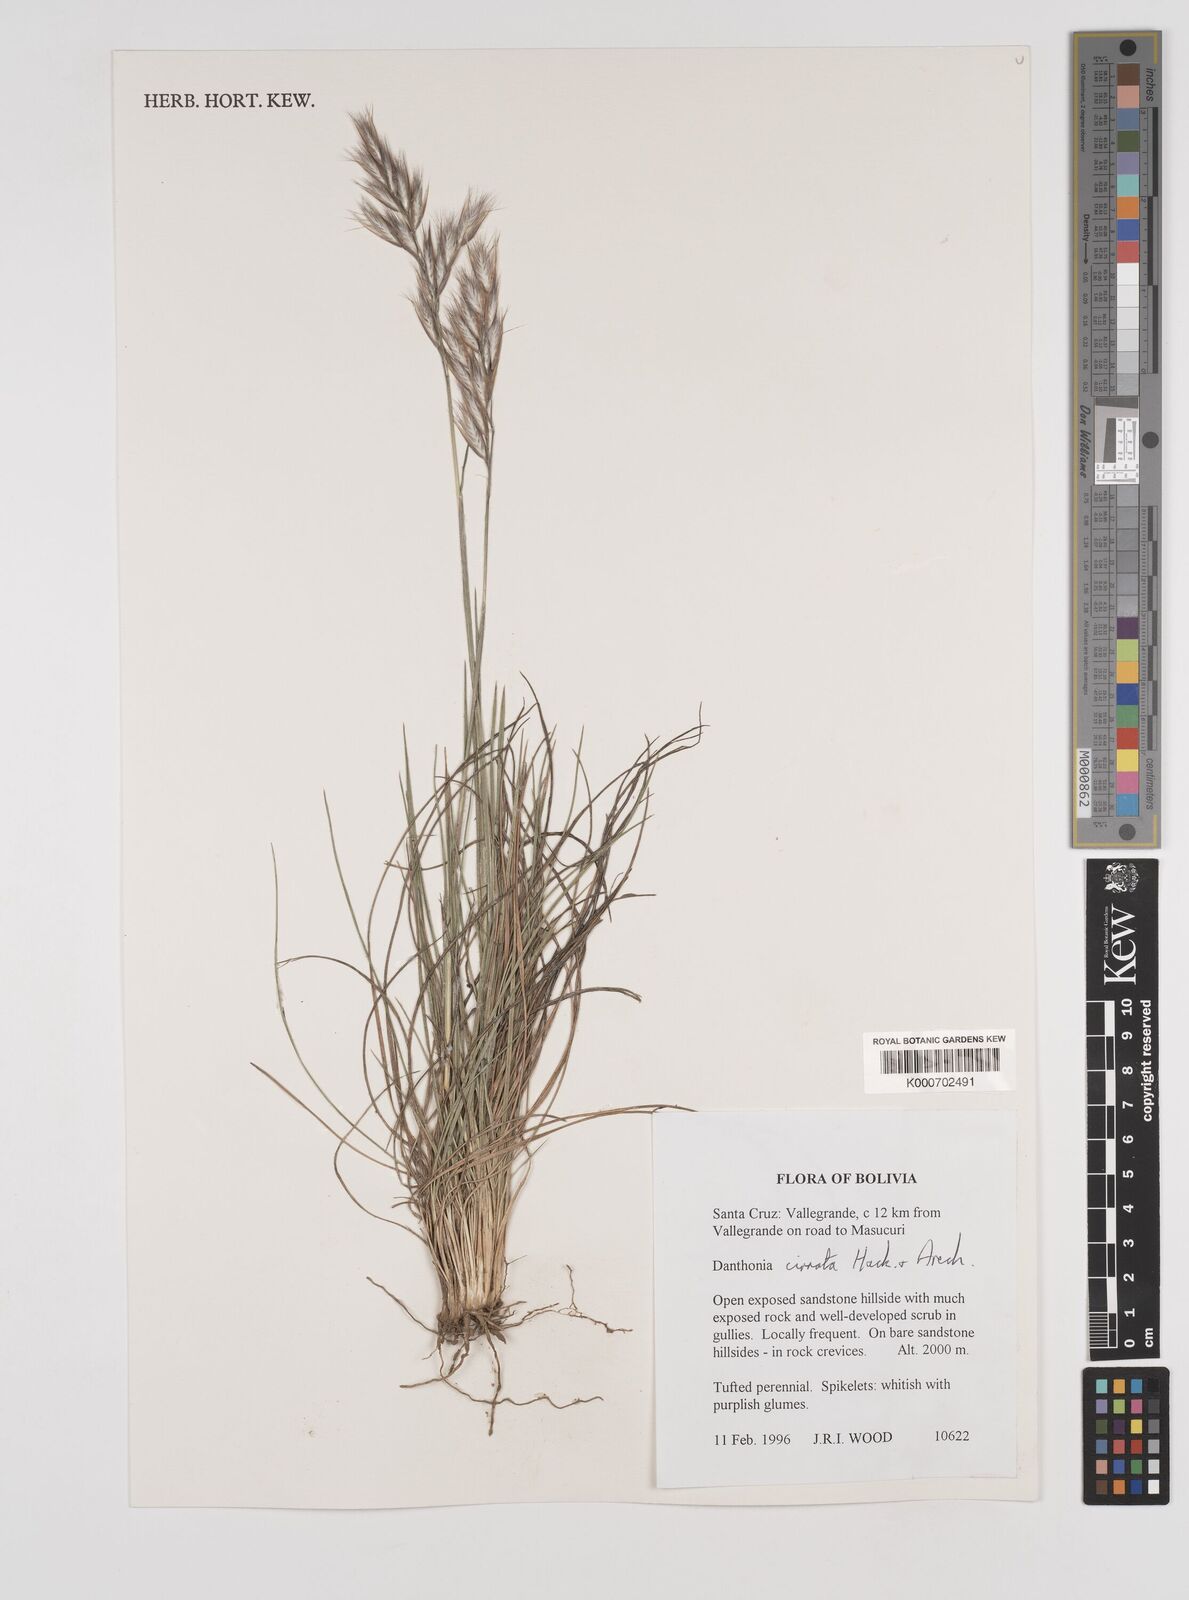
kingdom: Plantae
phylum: Tracheophyta
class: Liliopsida
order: Poales
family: Poaceae
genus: Danthonia
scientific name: Danthonia cirrata
